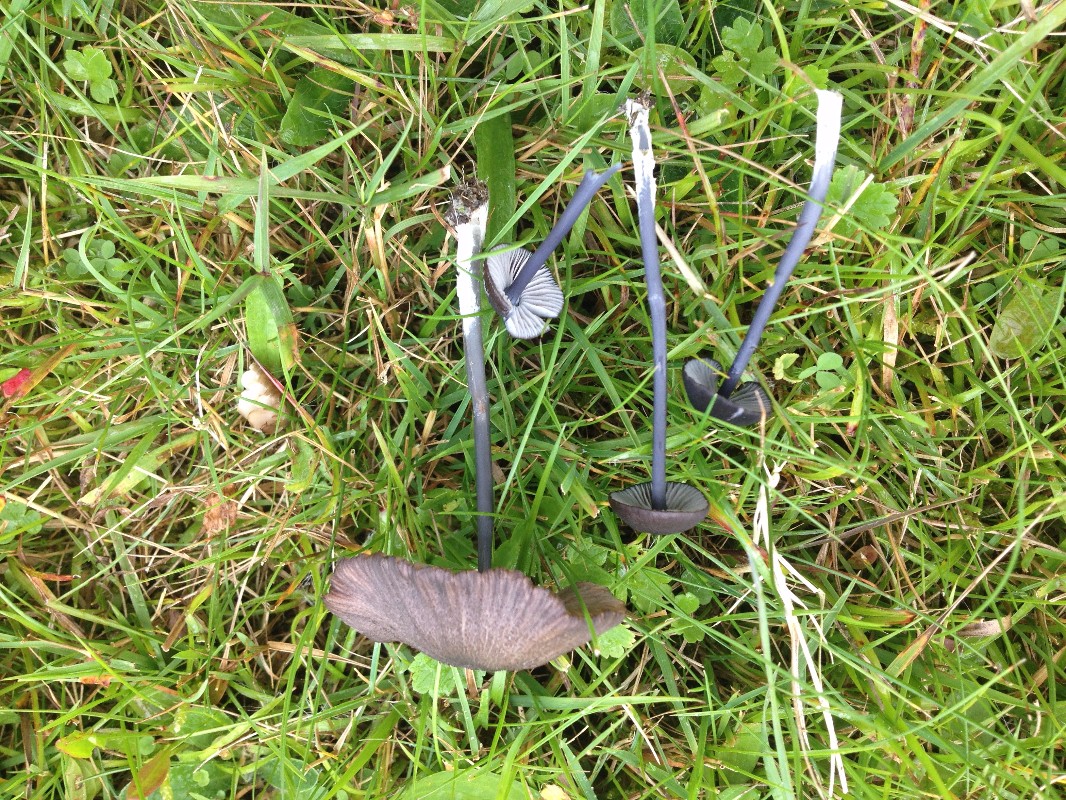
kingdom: Fungi
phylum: Basidiomycota
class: Agaricomycetes
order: Agaricales
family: Entolomataceae
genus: Entoloma
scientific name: Entoloma chalybeum
